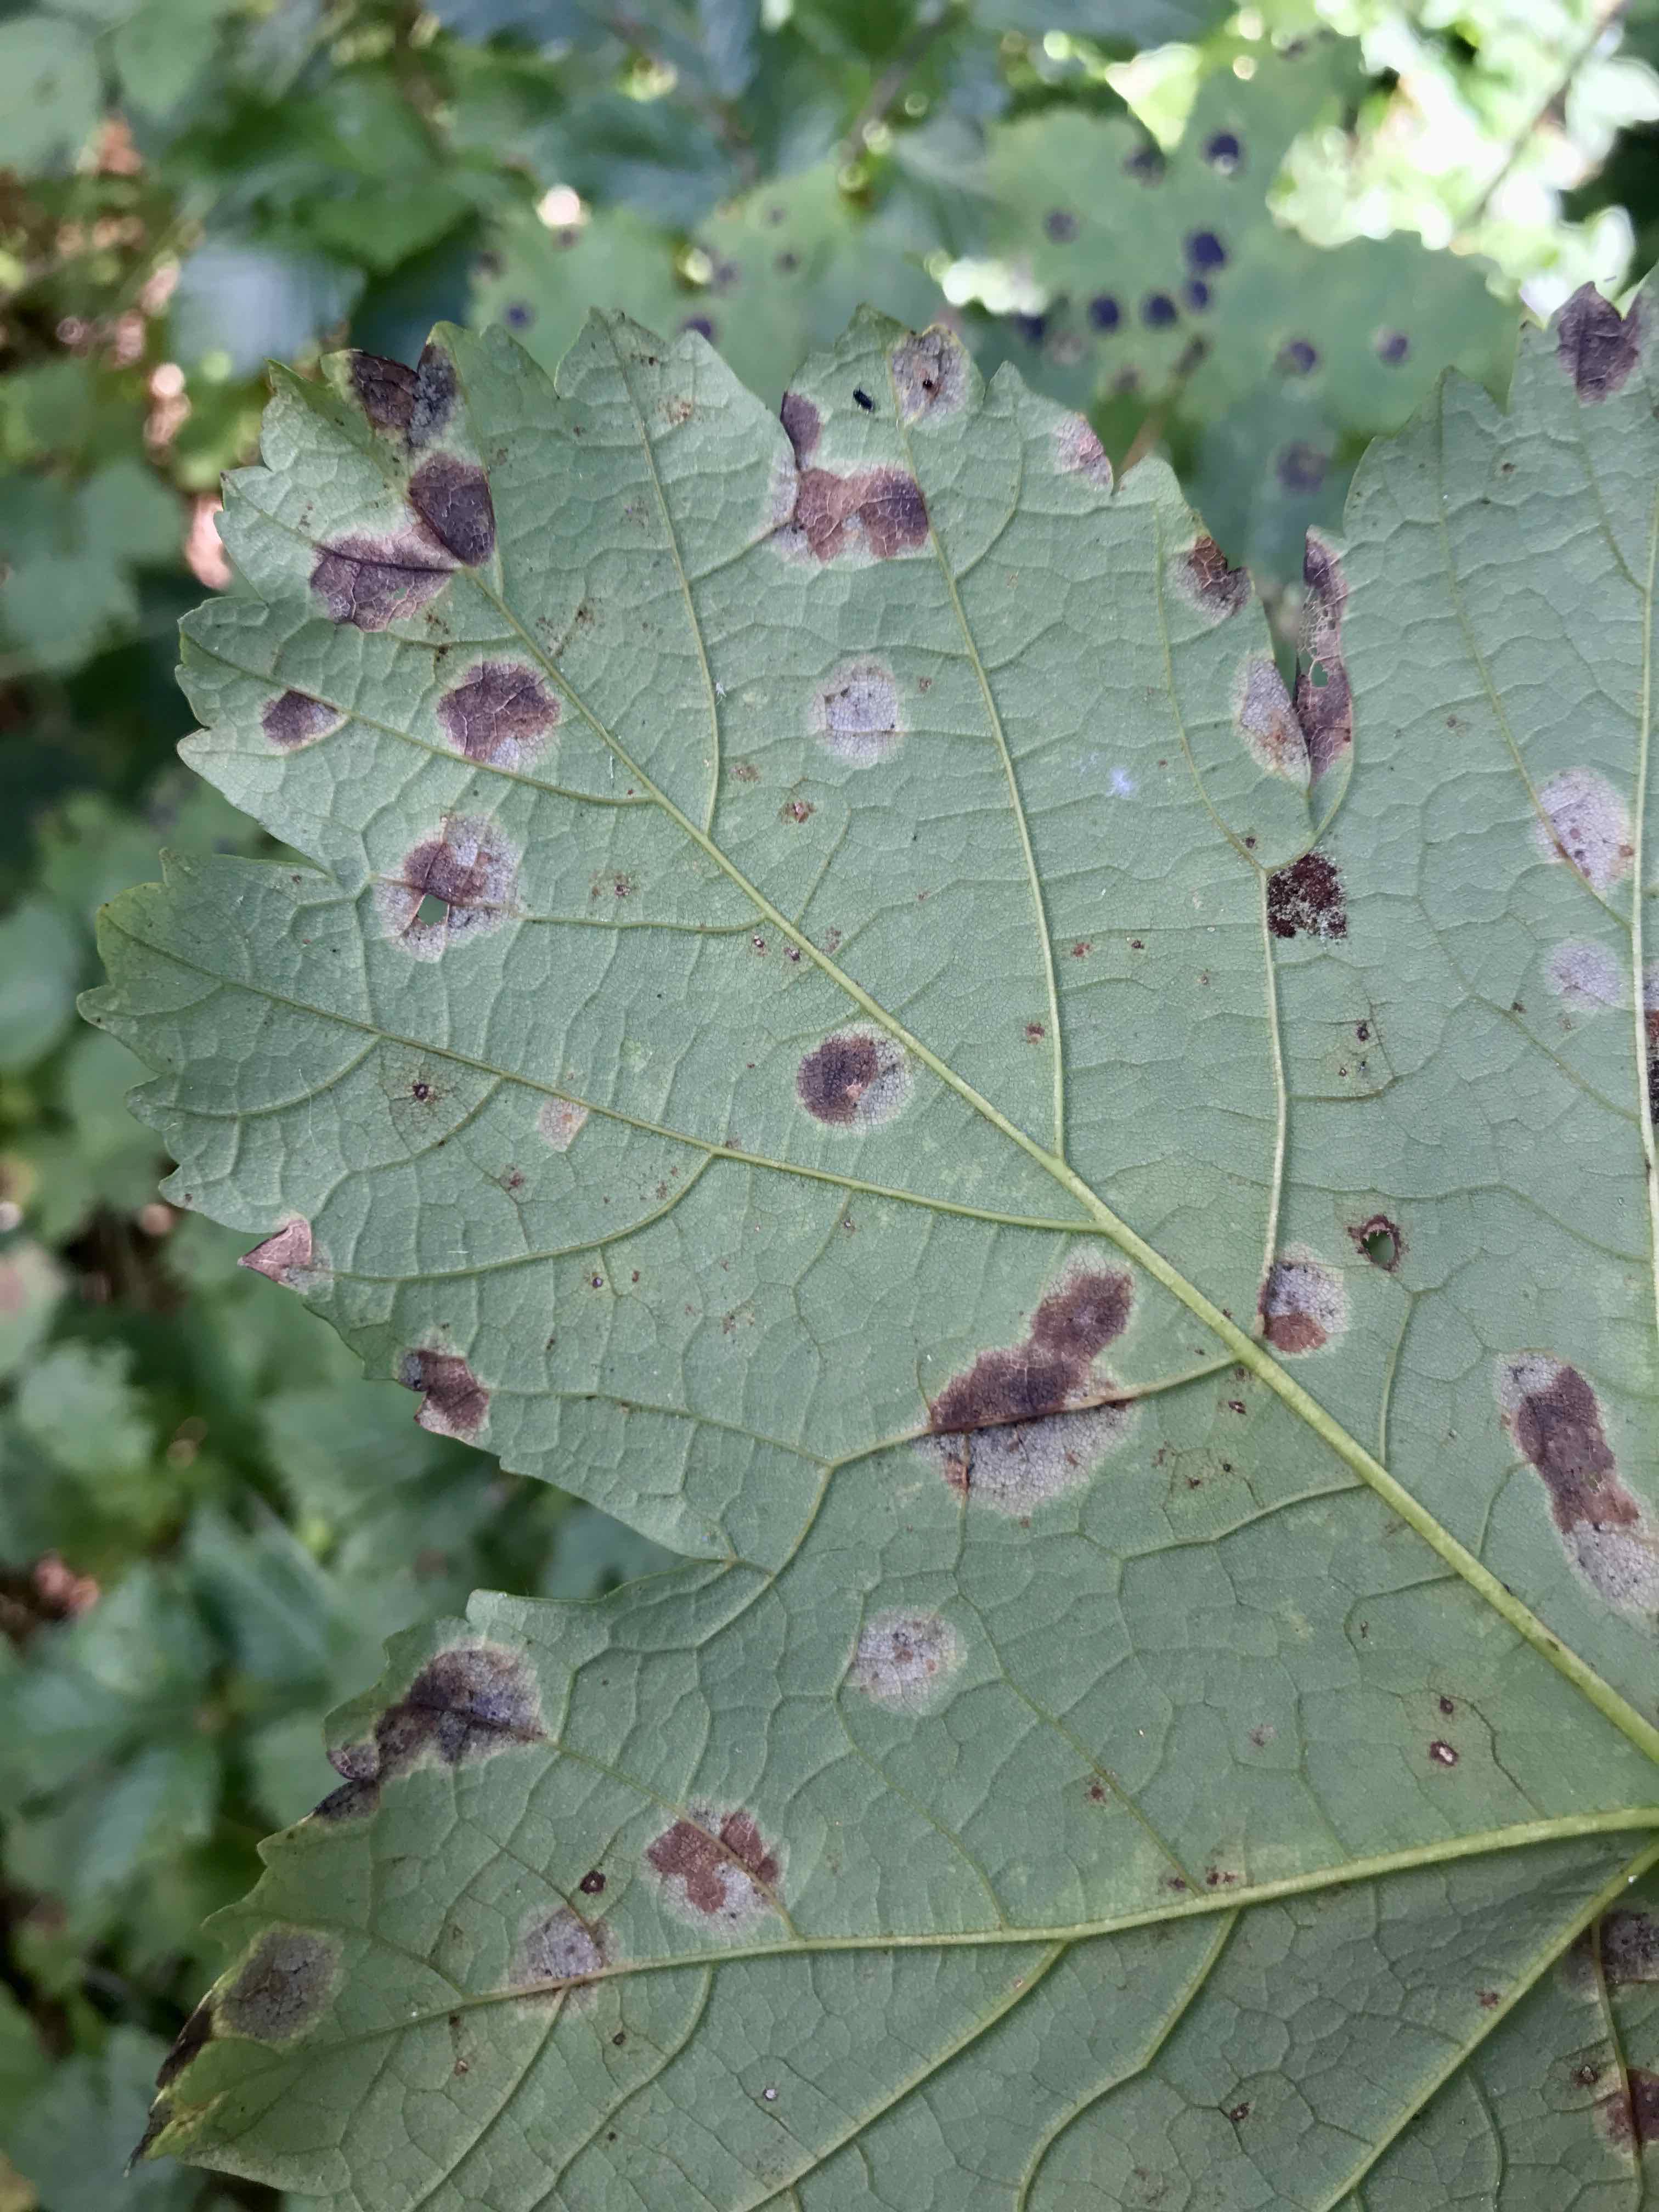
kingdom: Fungi
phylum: Ascomycota
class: Leotiomycetes
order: Rhytismatales
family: Rhytismataceae
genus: Rhytisma
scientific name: Rhytisma acerinum
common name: ahorn-rynkeplet
